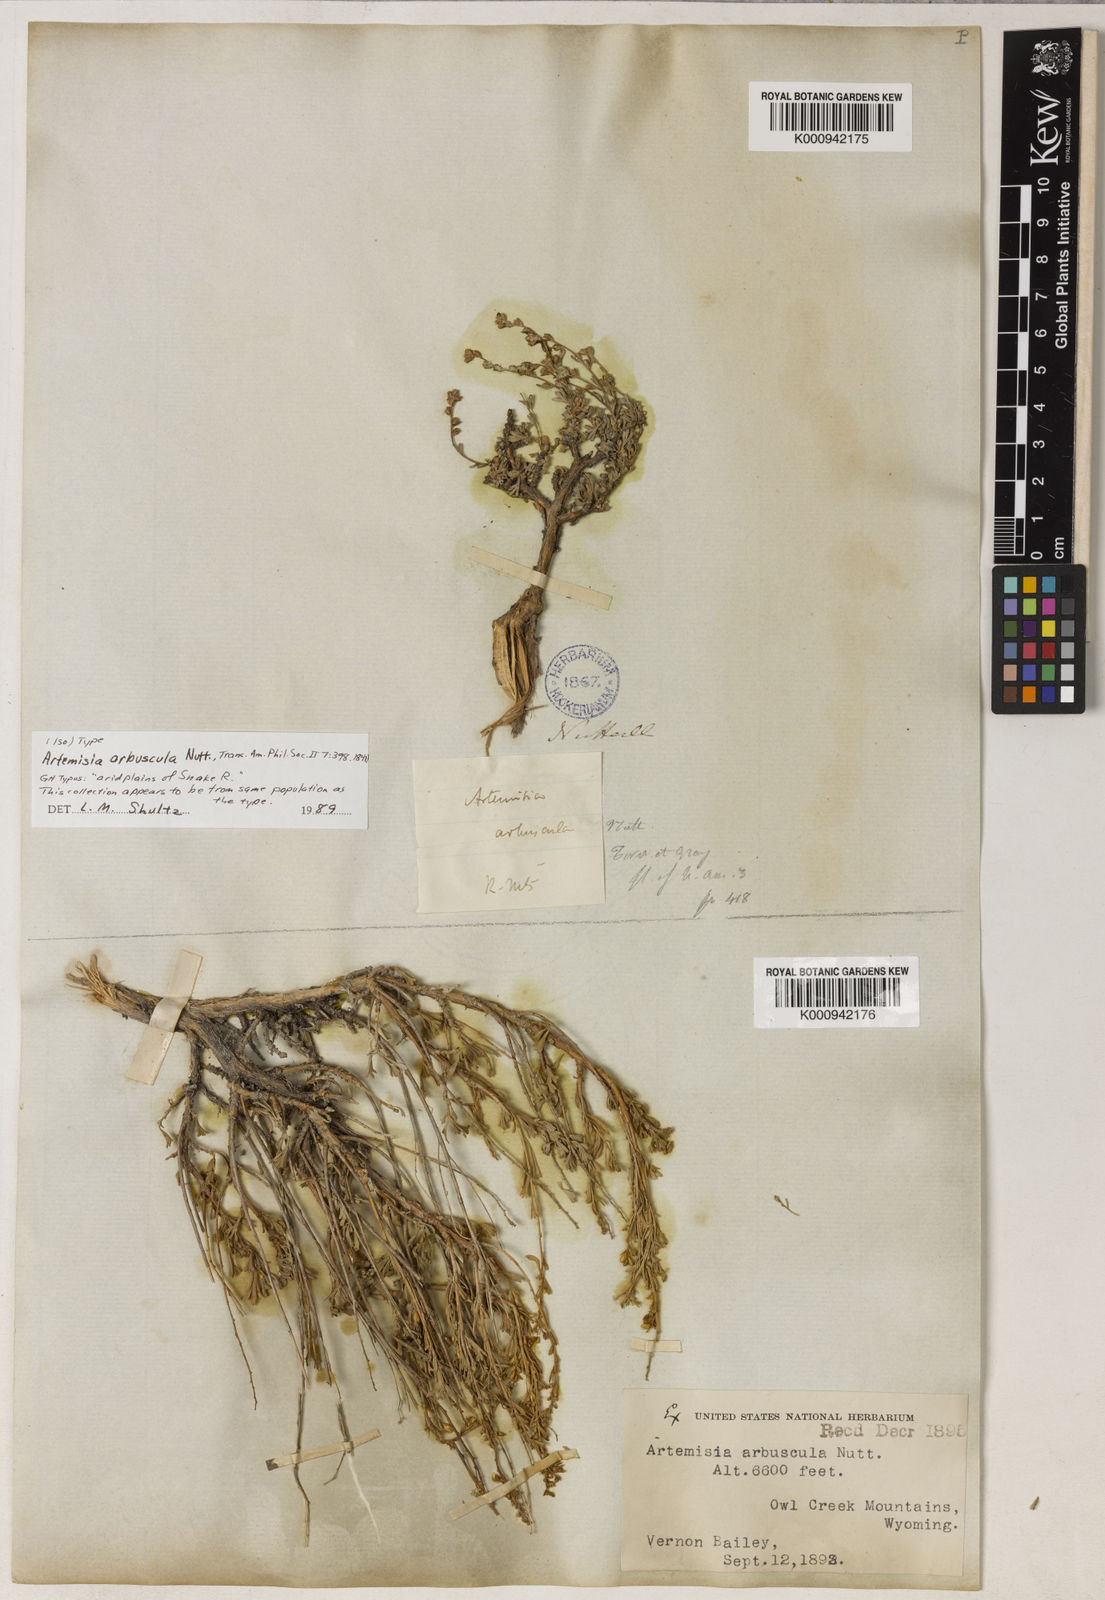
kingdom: Plantae
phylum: Tracheophyta
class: Magnoliopsida
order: Asterales
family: Asteraceae
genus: Artemisia
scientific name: Artemisia arbuscula
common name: Sagebrush
